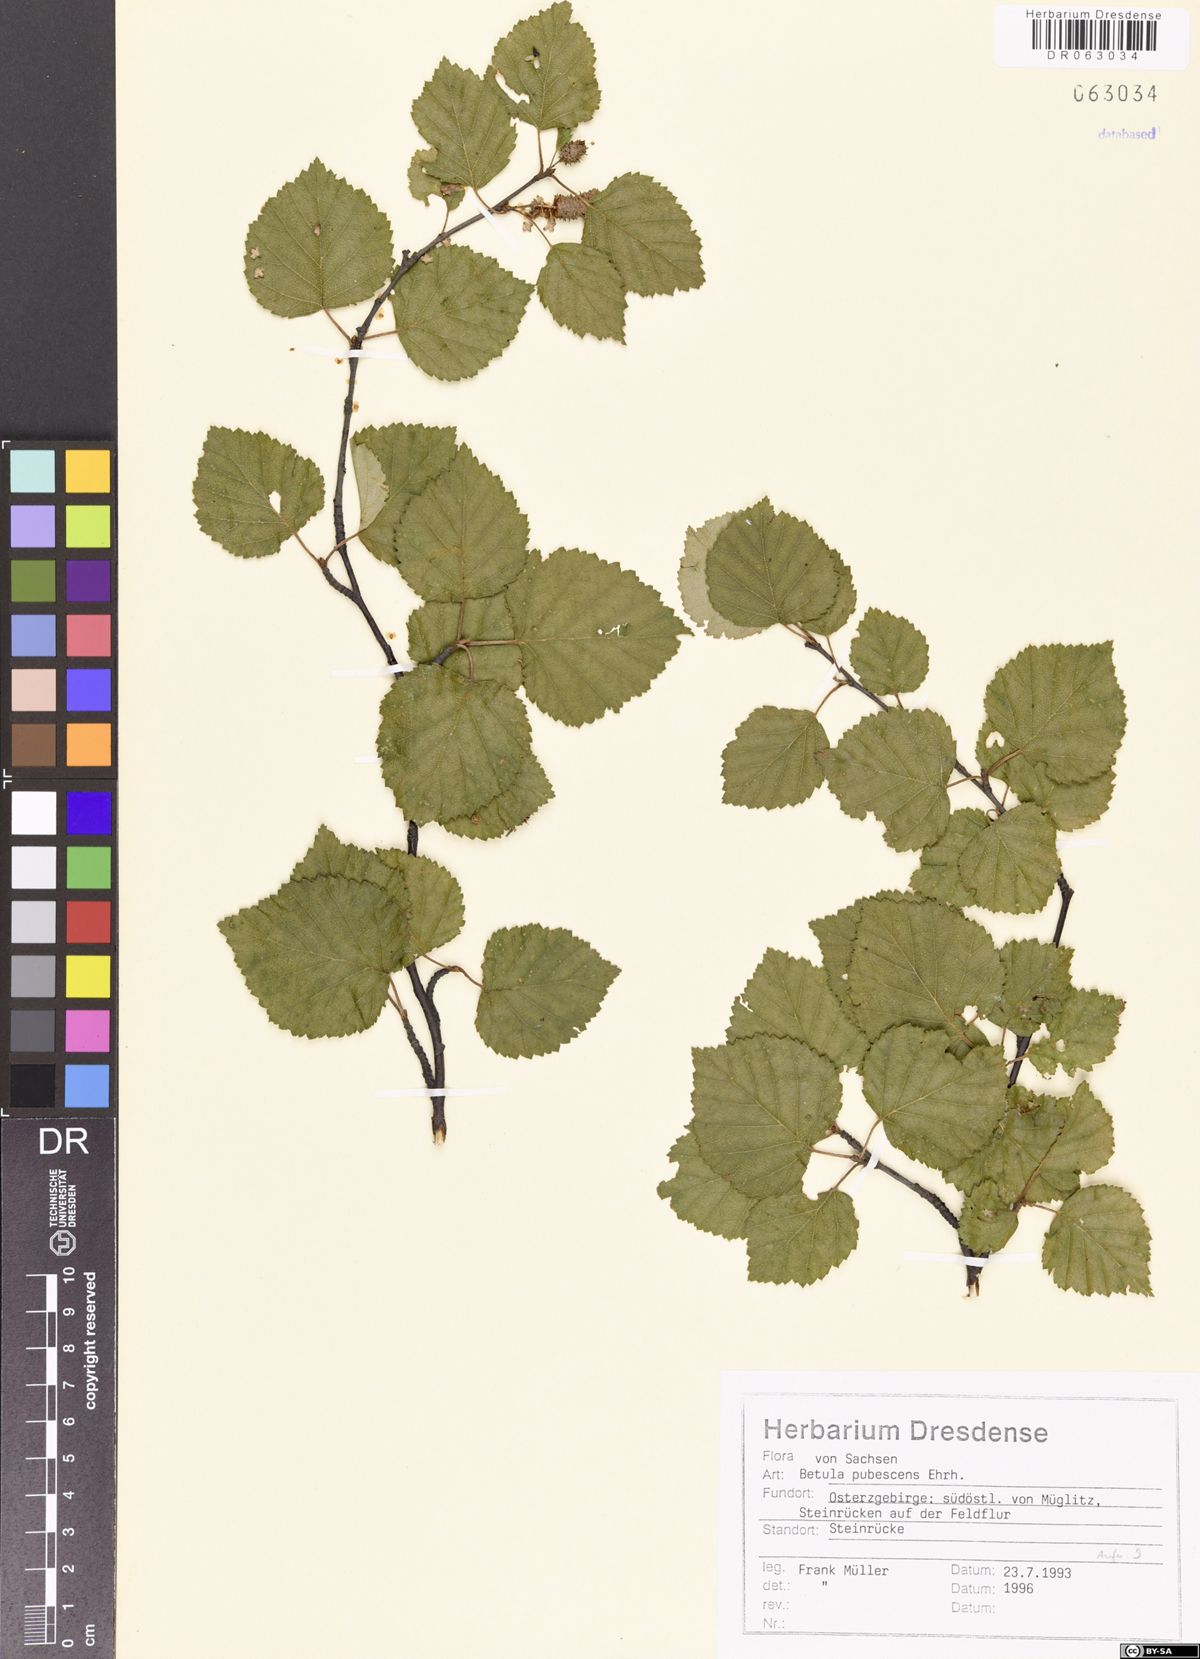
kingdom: Plantae
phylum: Tracheophyta
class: Magnoliopsida
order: Fagales
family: Betulaceae
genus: Betula
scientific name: Betula pubescens
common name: Downy birch
